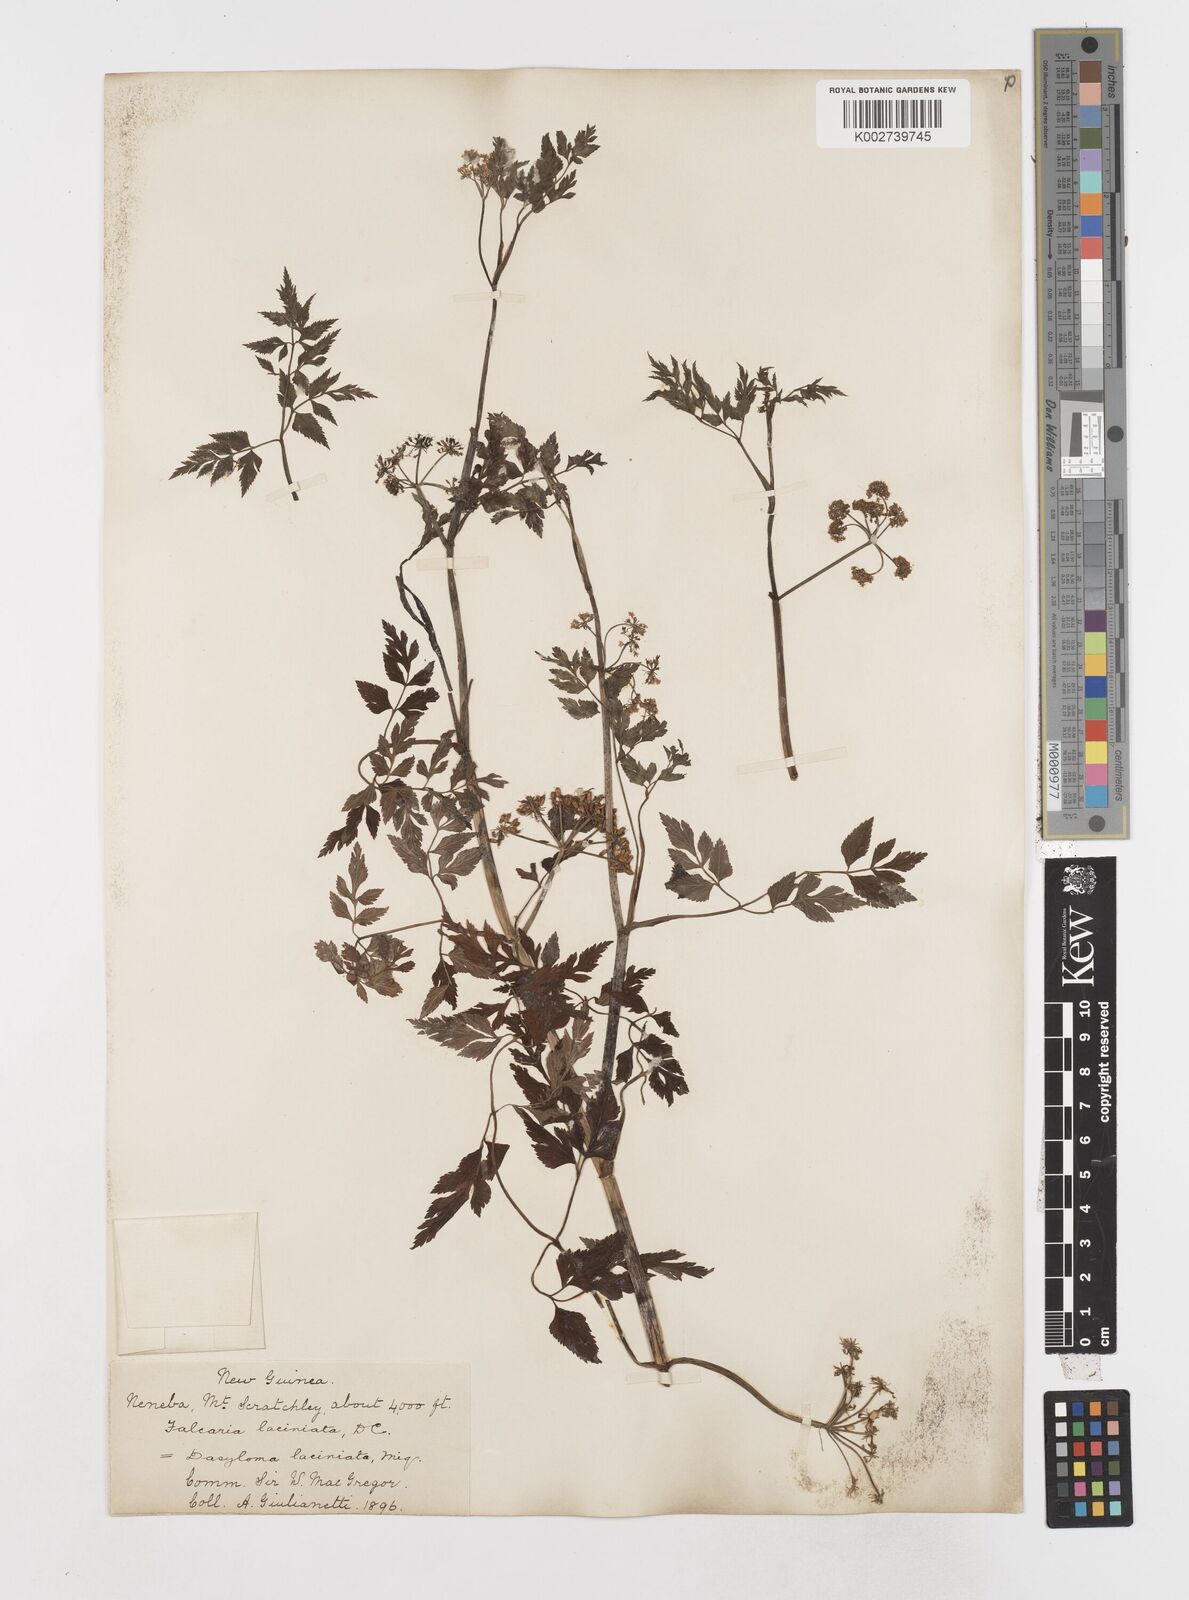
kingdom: Plantae
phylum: Tracheophyta
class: Magnoliopsida
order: Apiales
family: Apiaceae
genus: Oenanthe
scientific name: Oenanthe javanica
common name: Java water-dropwort
